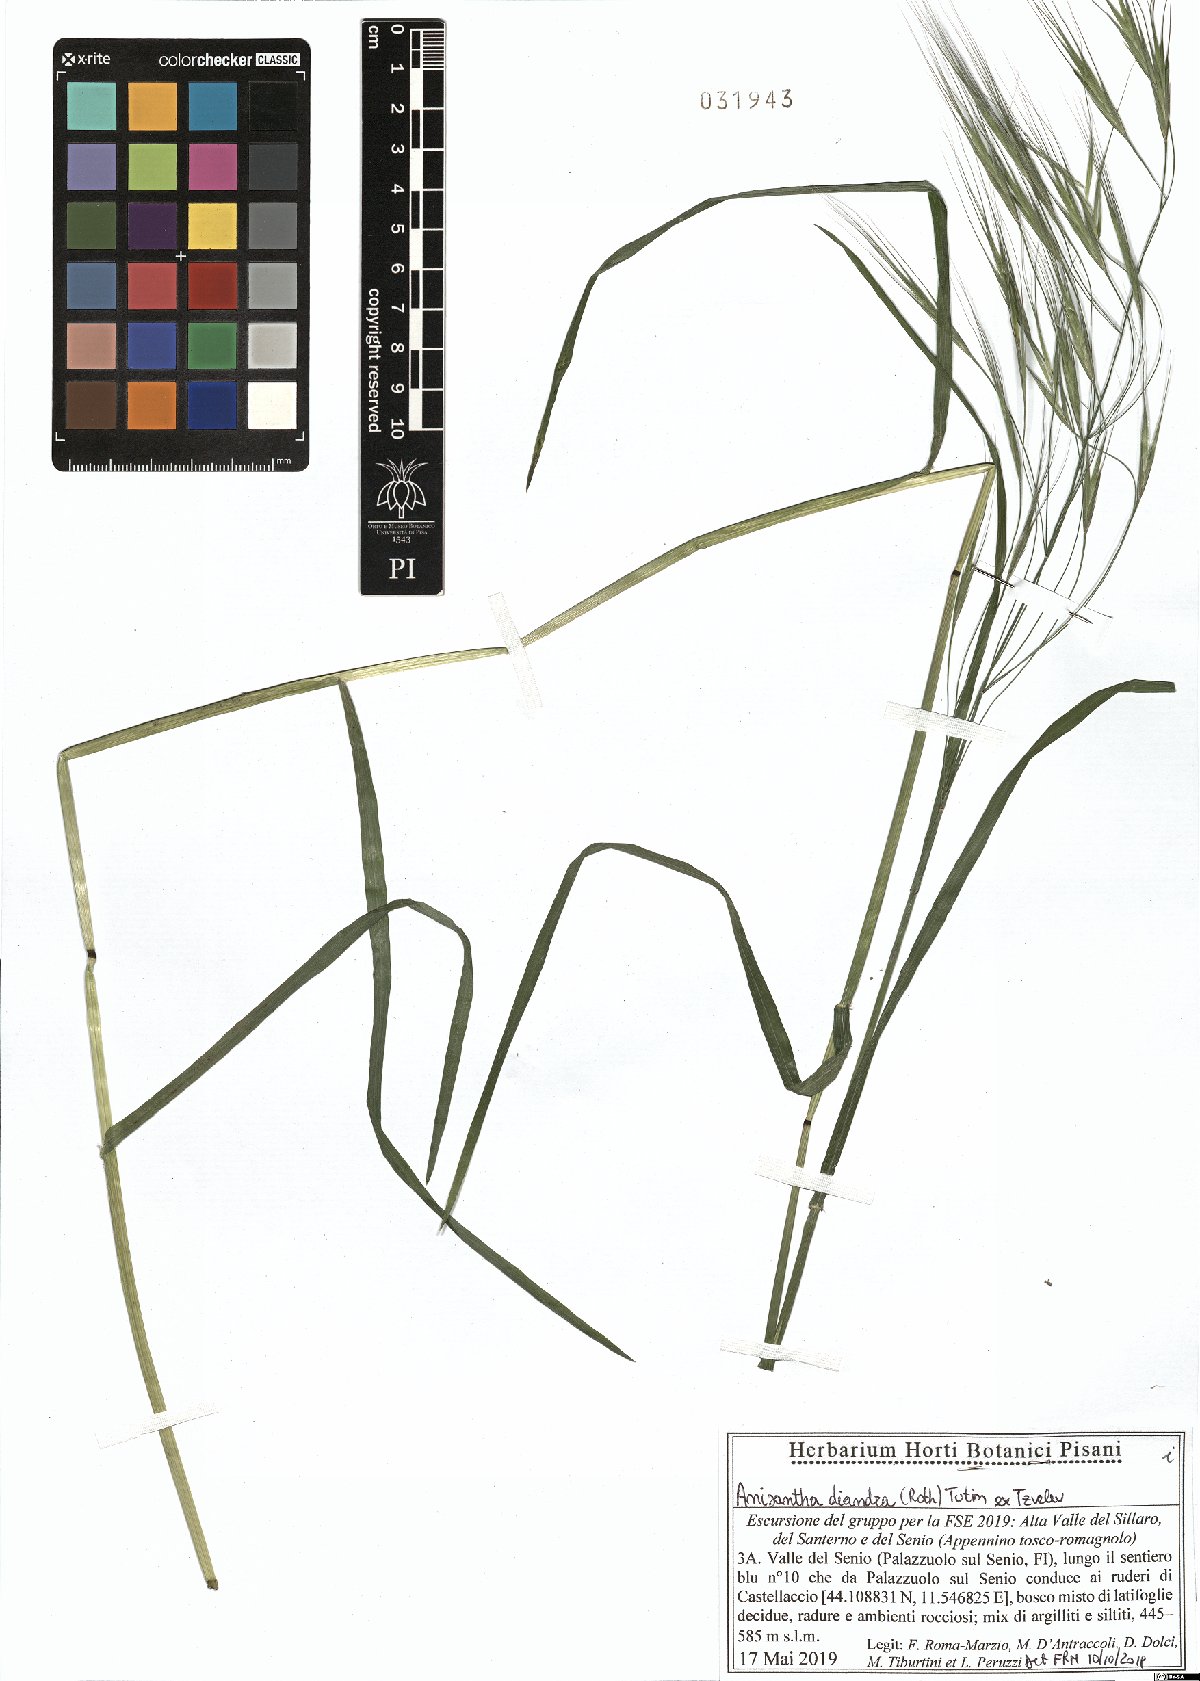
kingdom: Plantae
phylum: Tracheophyta
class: Liliopsida
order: Poales
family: Poaceae
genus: Bromus
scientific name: Bromus diandrus
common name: Ripgut brome
